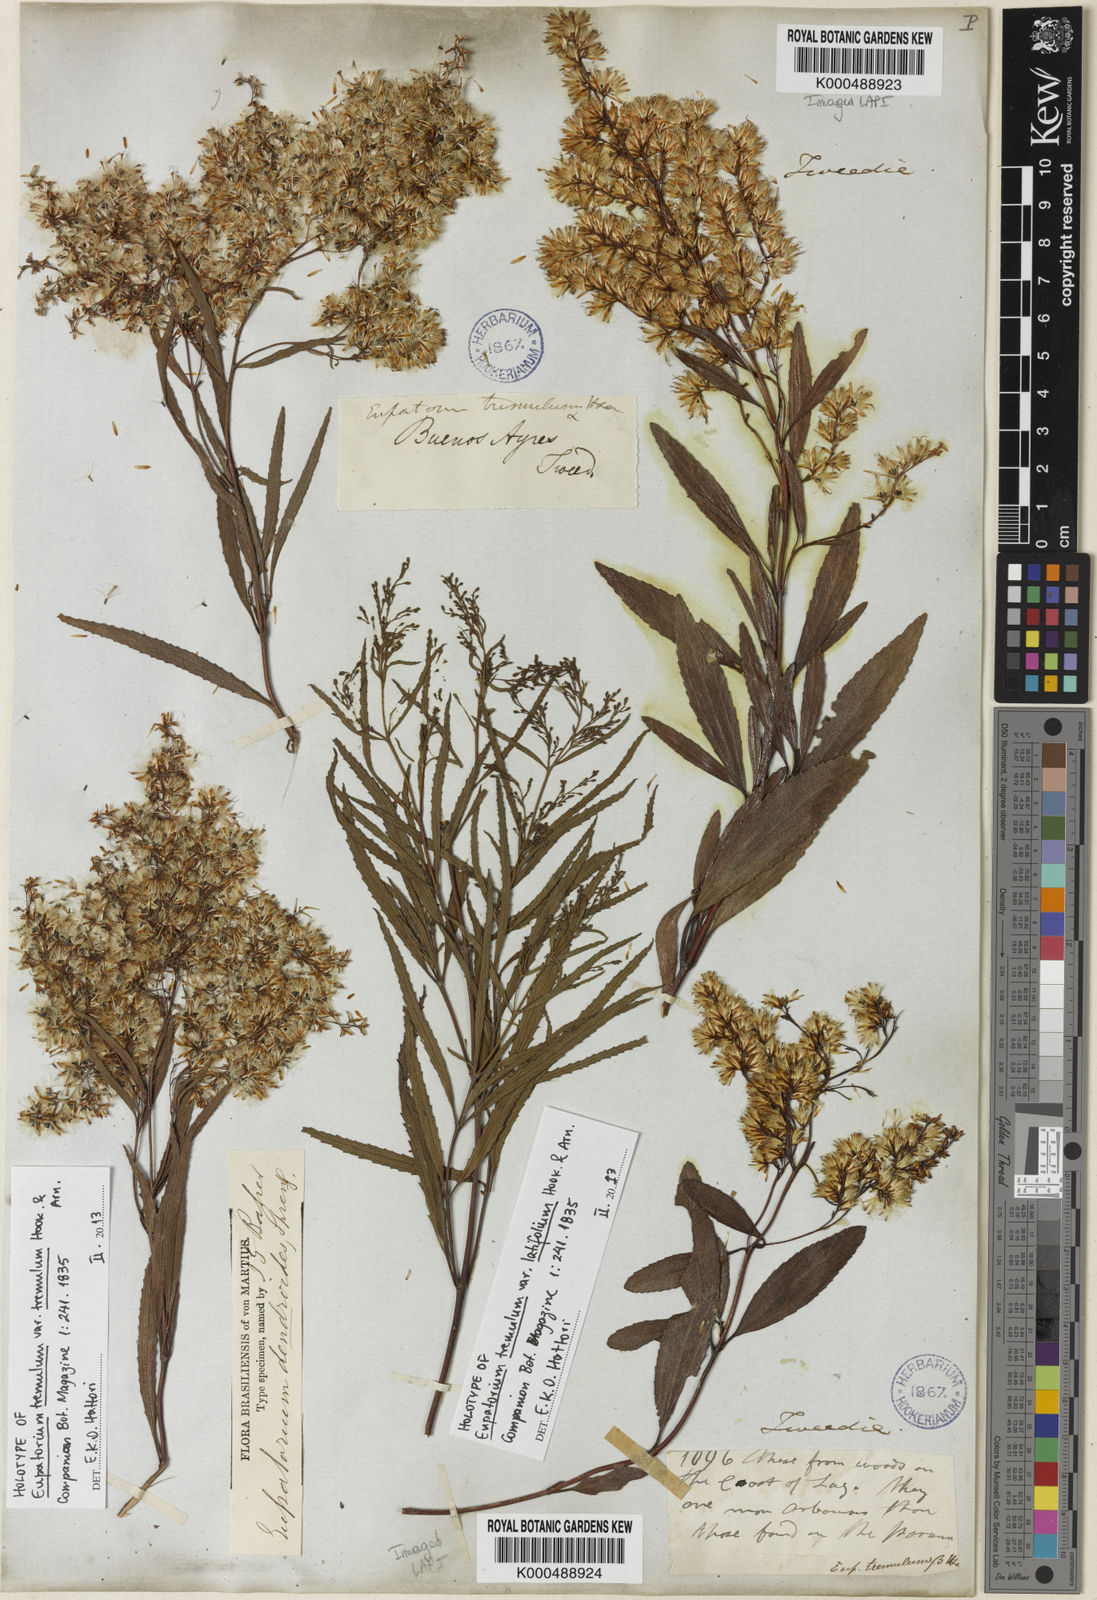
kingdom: Plantae
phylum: Tracheophyta
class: Magnoliopsida
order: Asterales
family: Asteraceae
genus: Raulinoreitzia
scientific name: Raulinoreitzia tremula
